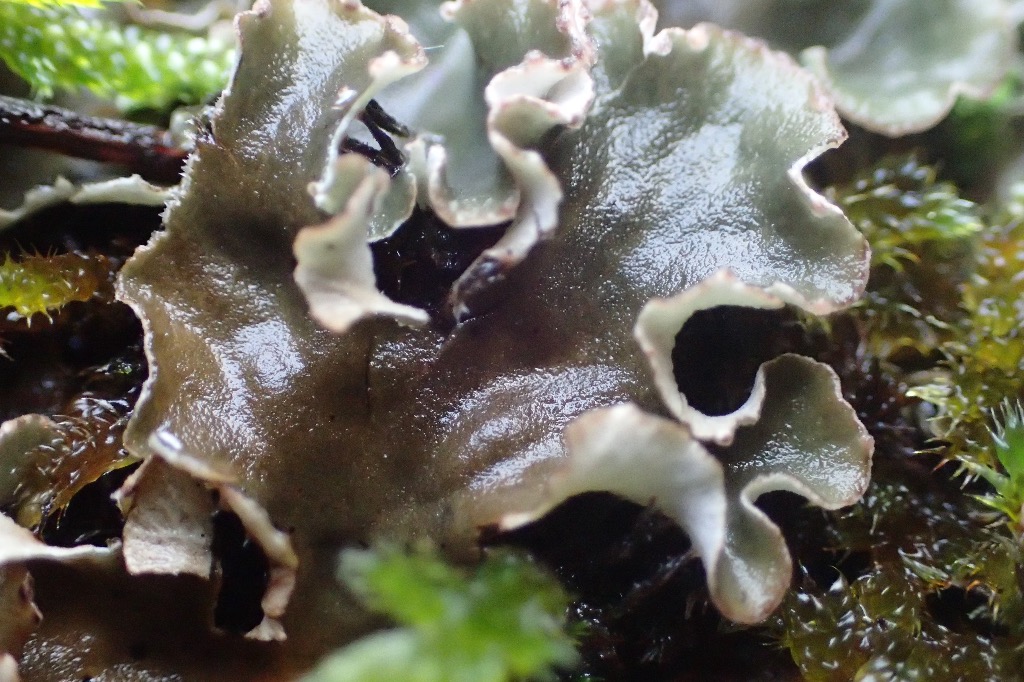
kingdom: Fungi
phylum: Ascomycota
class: Lecanoromycetes
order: Peltigerales
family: Peltigeraceae
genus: Peltigera
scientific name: Peltigera rufescens
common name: brun skjoldlav
